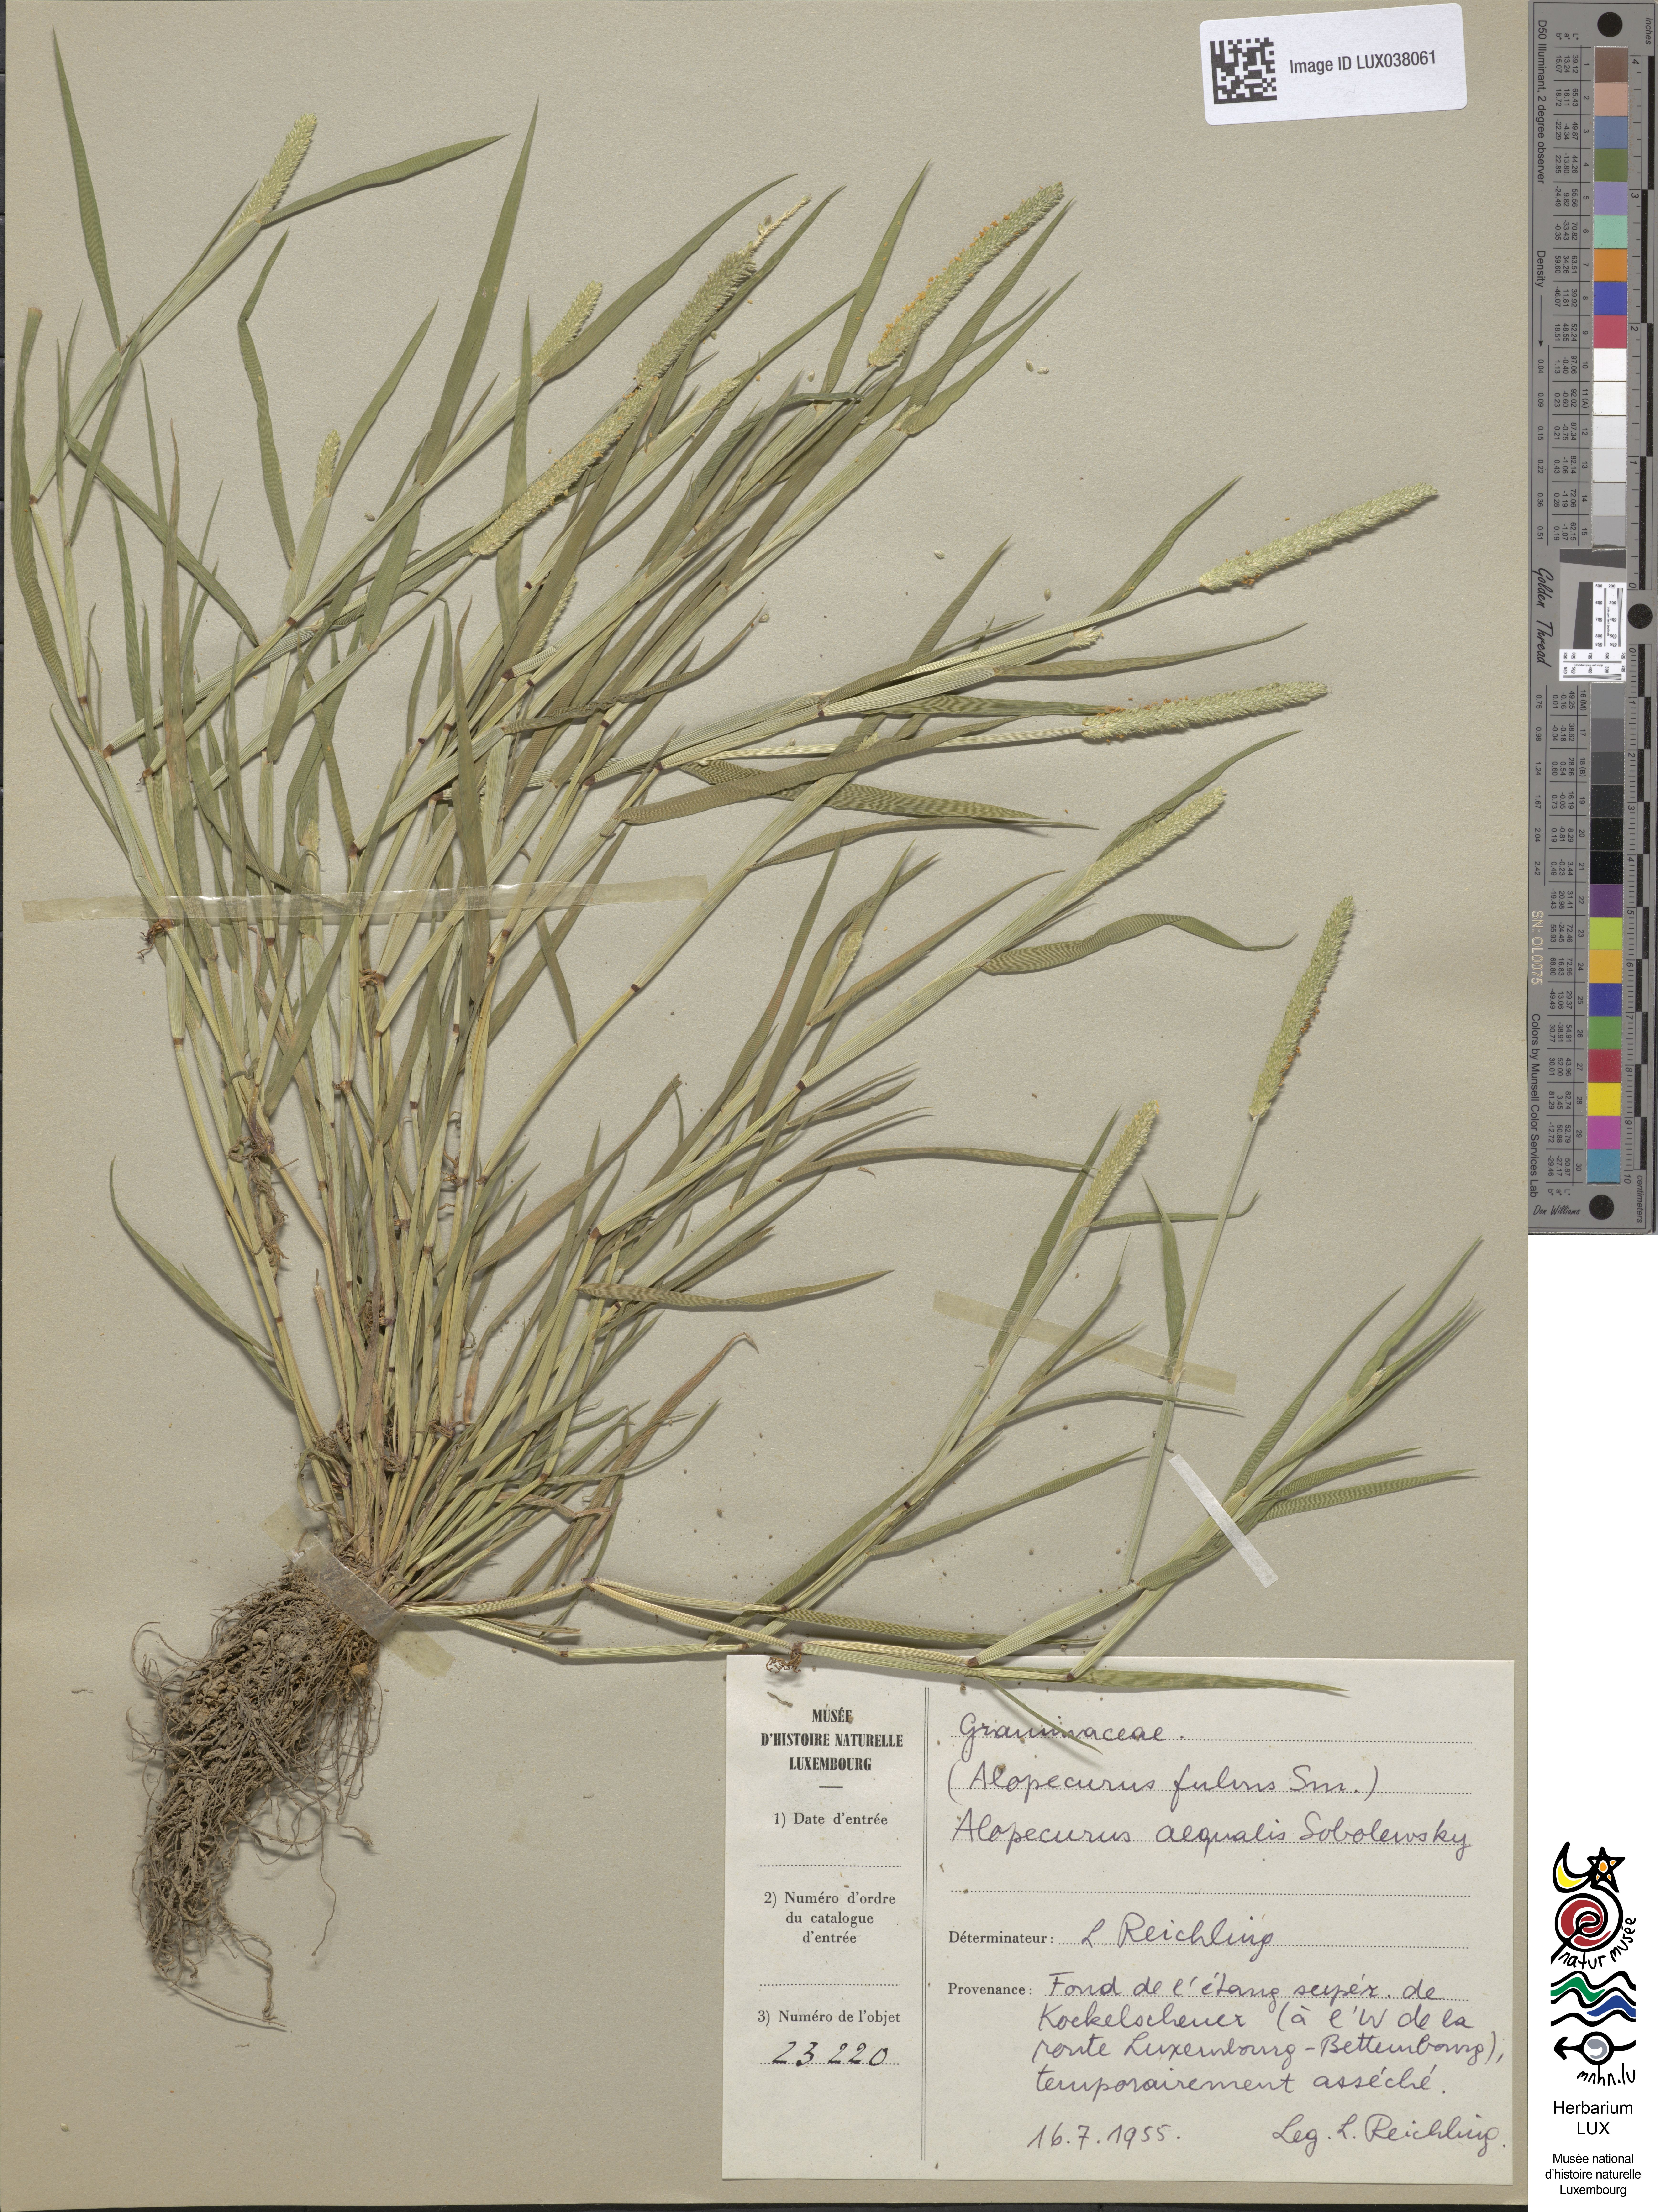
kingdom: Plantae
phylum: Tracheophyta
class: Liliopsida
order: Poales
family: Poaceae
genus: Alopecurus
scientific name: Alopecurus aequalis
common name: Orange foxtail
